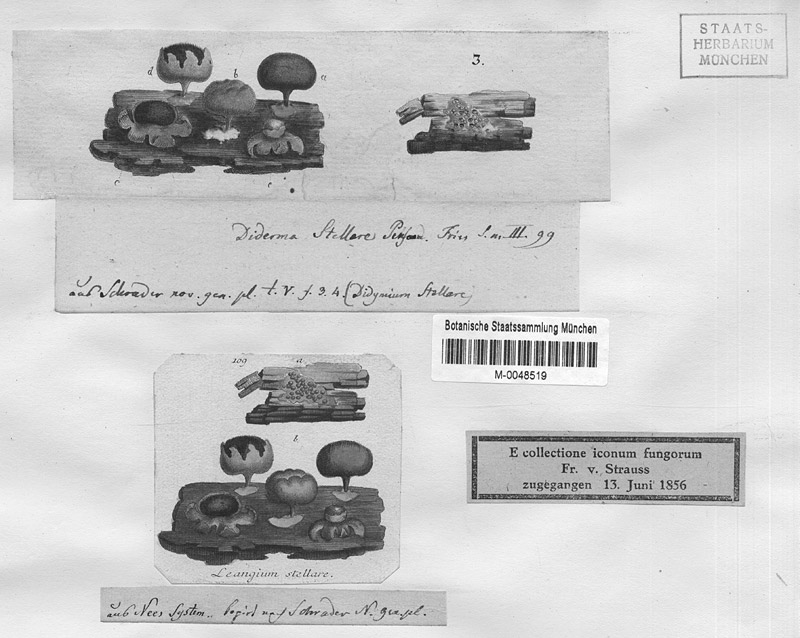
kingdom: Protozoa
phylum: Mycetozoa
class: Myxomycetes
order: Physarales
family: Didymiaceae
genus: Diderma
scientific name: Diderma radiatum
